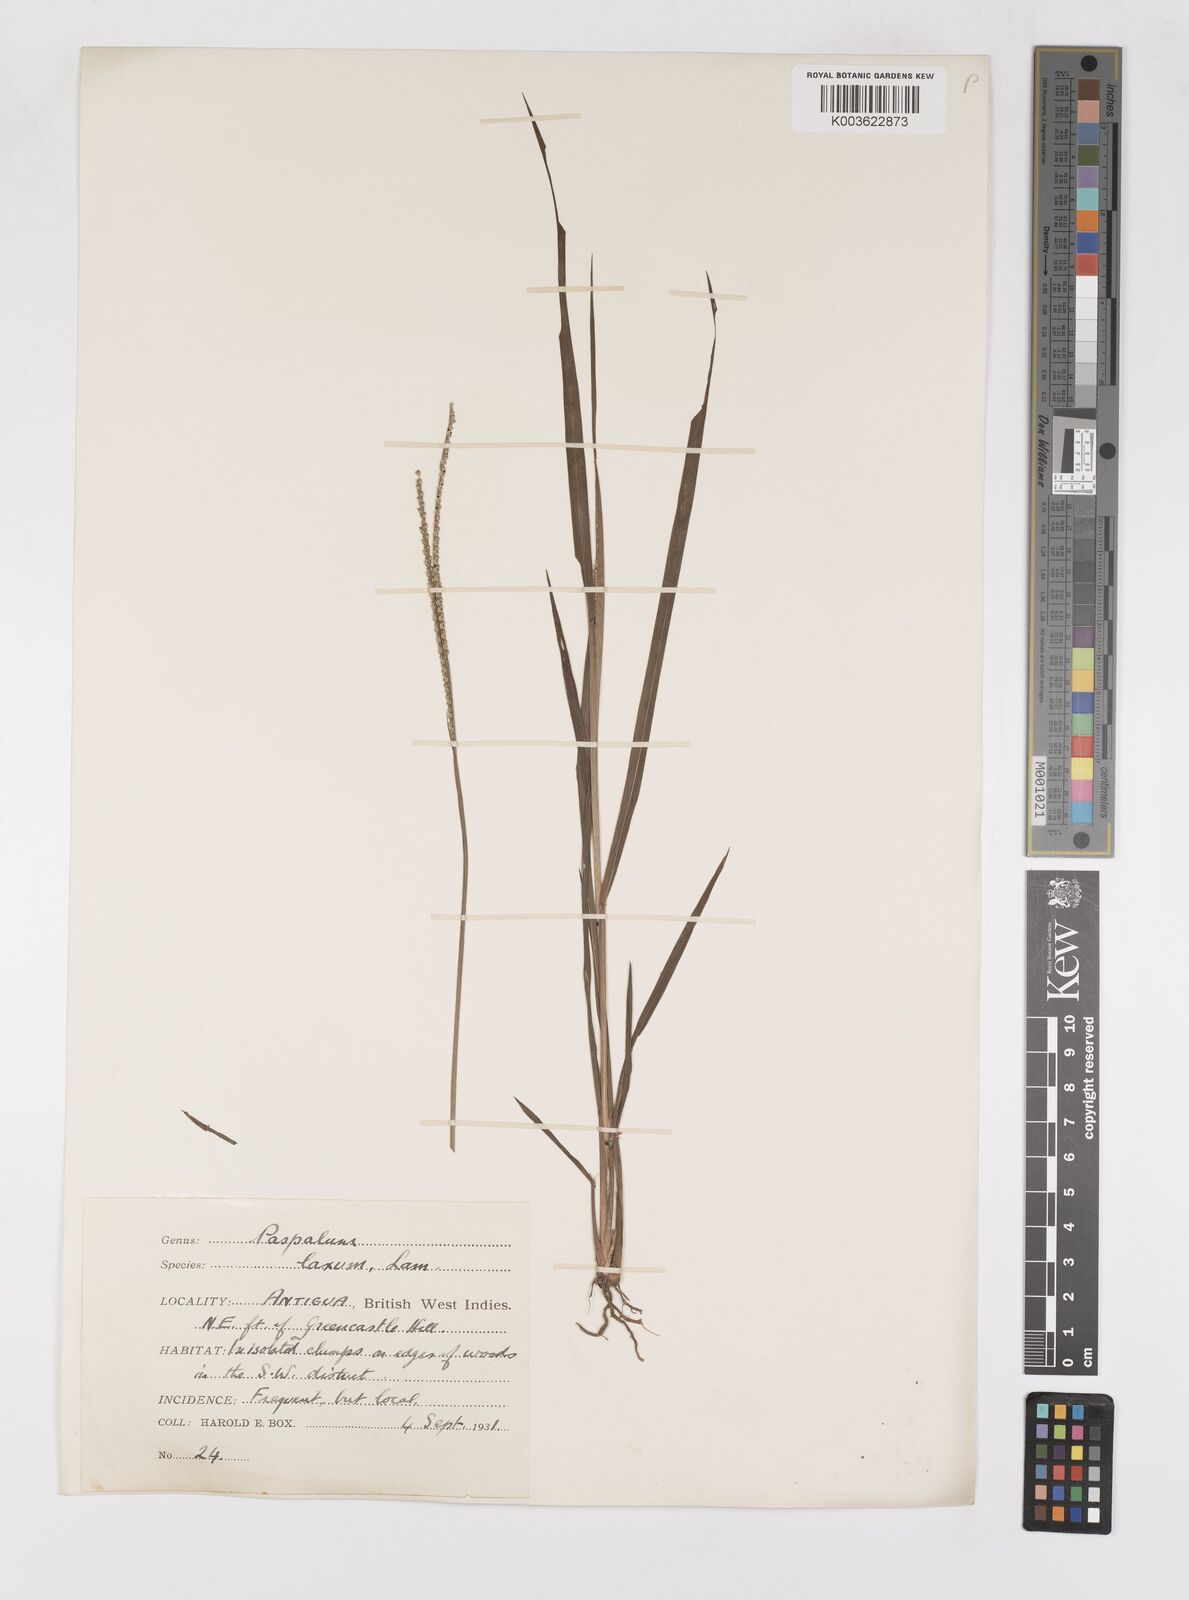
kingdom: Plantae
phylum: Tracheophyta
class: Liliopsida
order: Poales
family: Poaceae
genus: Paspalum
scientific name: Paspalum laxum
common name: Coconut paspalum
